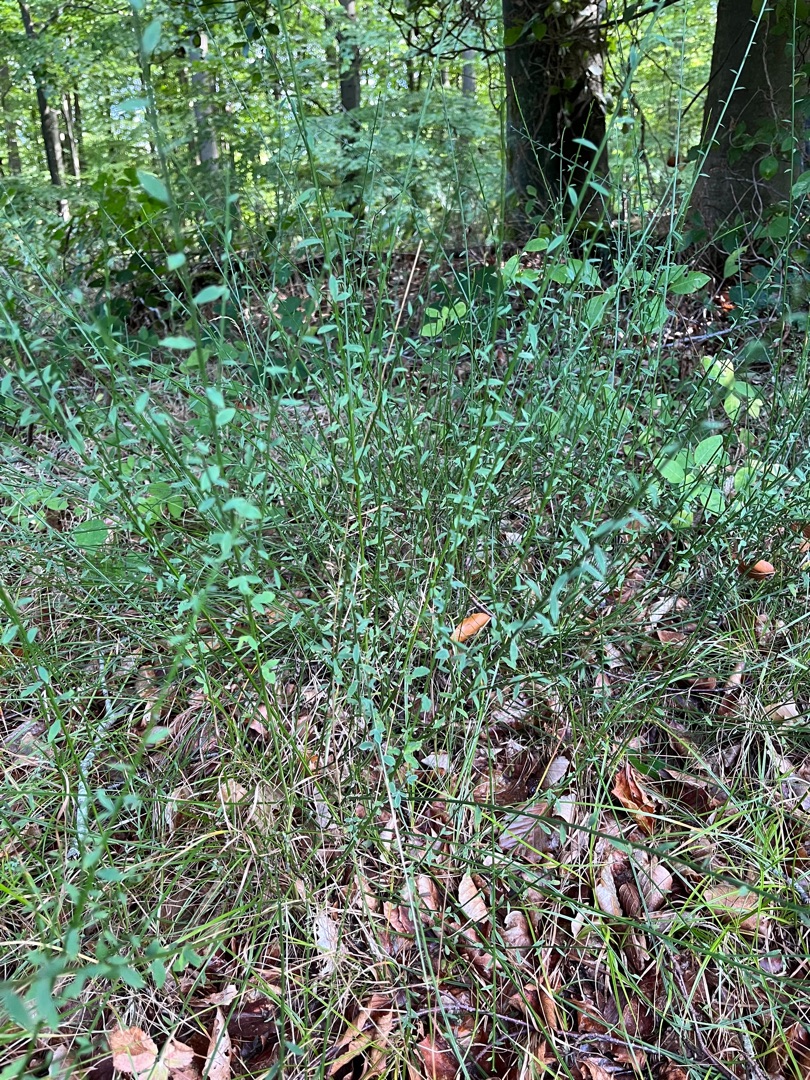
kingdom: Plantae
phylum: Tracheophyta
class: Magnoliopsida
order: Fabales
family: Fabaceae
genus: Cytisus
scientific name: Cytisus scoparius
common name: Almindelig gyvel
